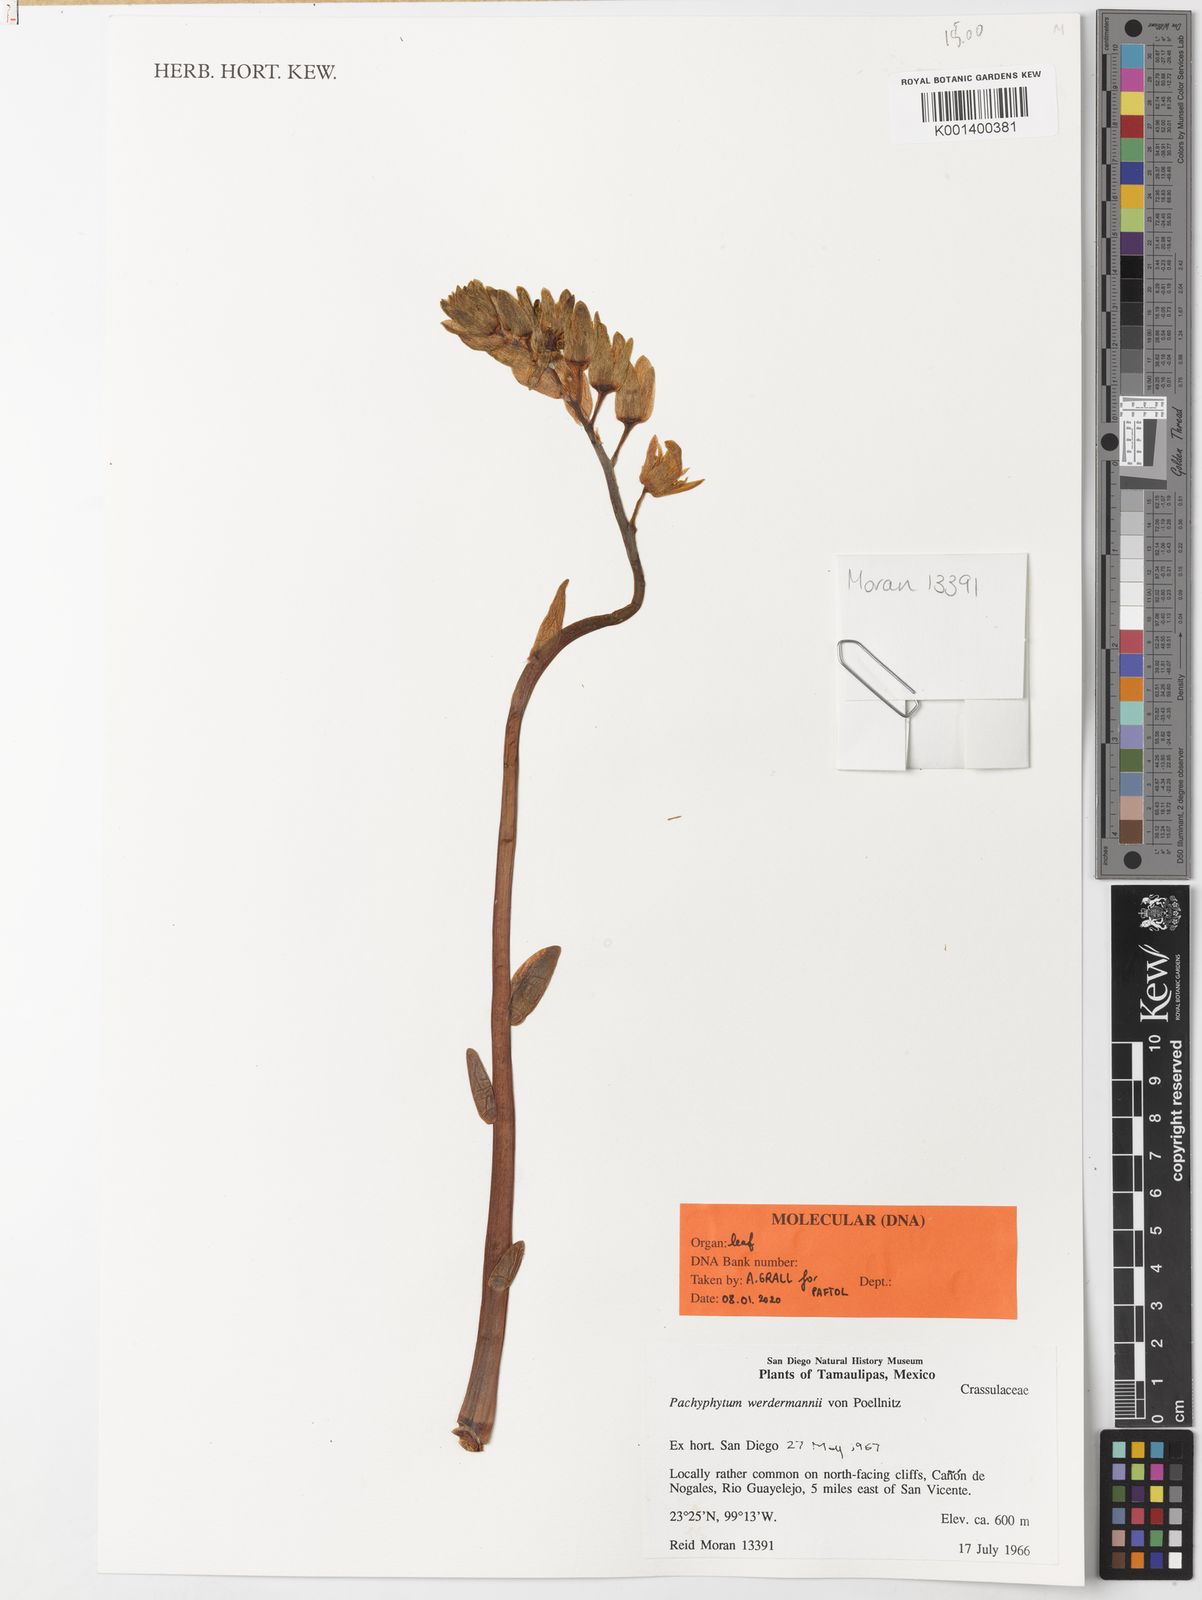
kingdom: Plantae
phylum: Tracheophyta
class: Magnoliopsida
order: Saxifragales
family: Crassulaceae
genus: Pachyphytum
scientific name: Pachyphytum werdermannii
